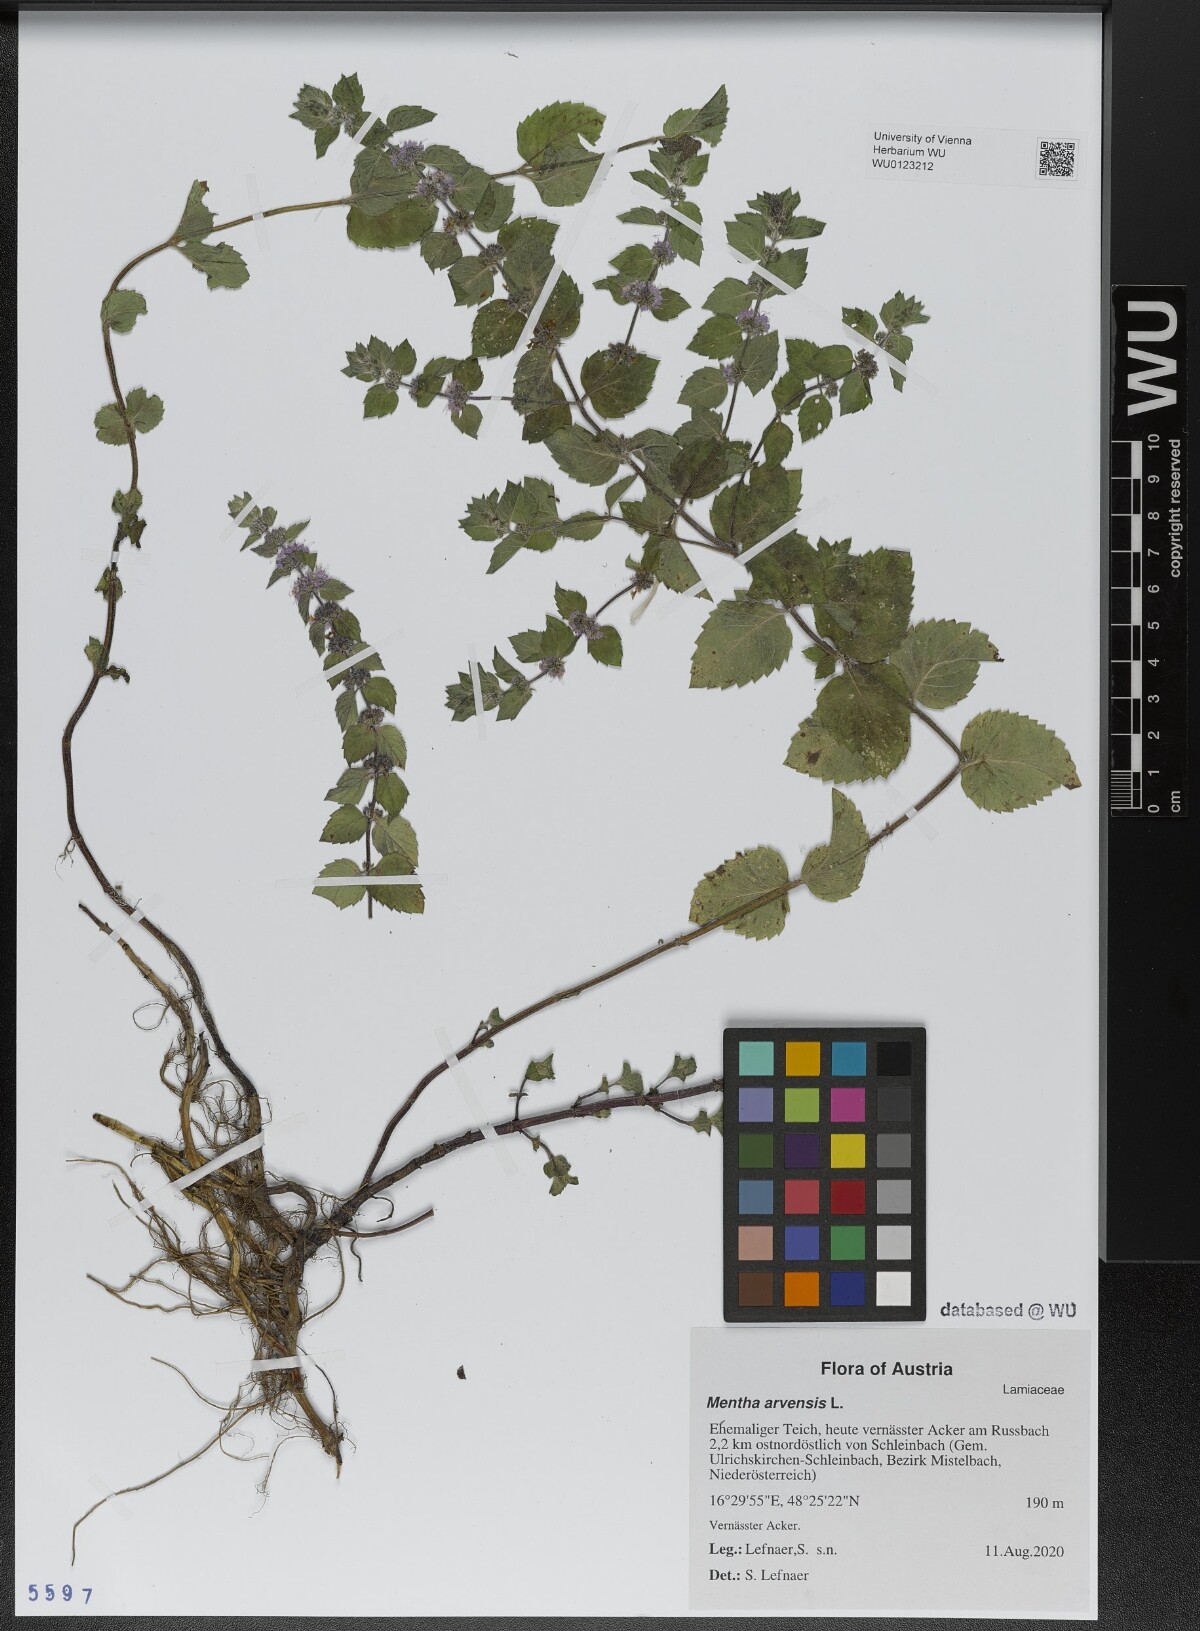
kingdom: Plantae
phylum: Tracheophyta
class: Magnoliopsida
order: Lamiales
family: Lamiaceae
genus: Mentha
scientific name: Mentha arvensis
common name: Corn mint
